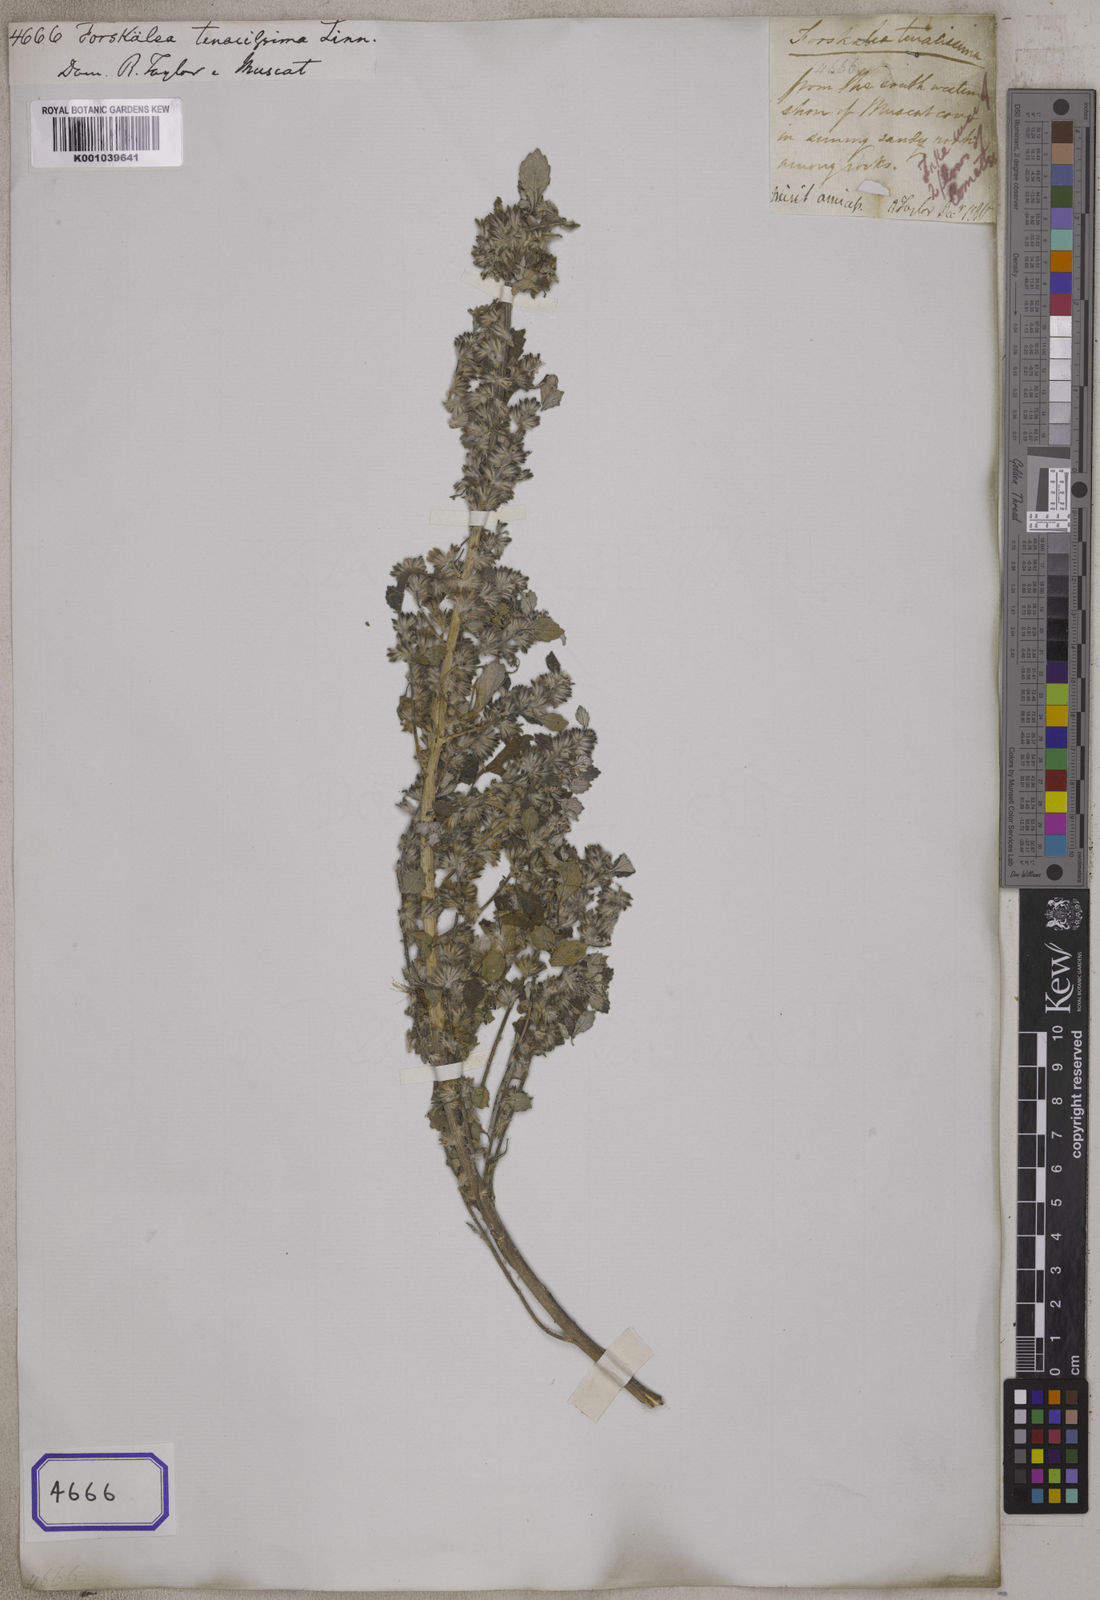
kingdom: Plantae
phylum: Tracheophyta
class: Magnoliopsida
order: Rosales
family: Urticaceae
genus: Forsskaolea
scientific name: Forsskaolea tenacissima
